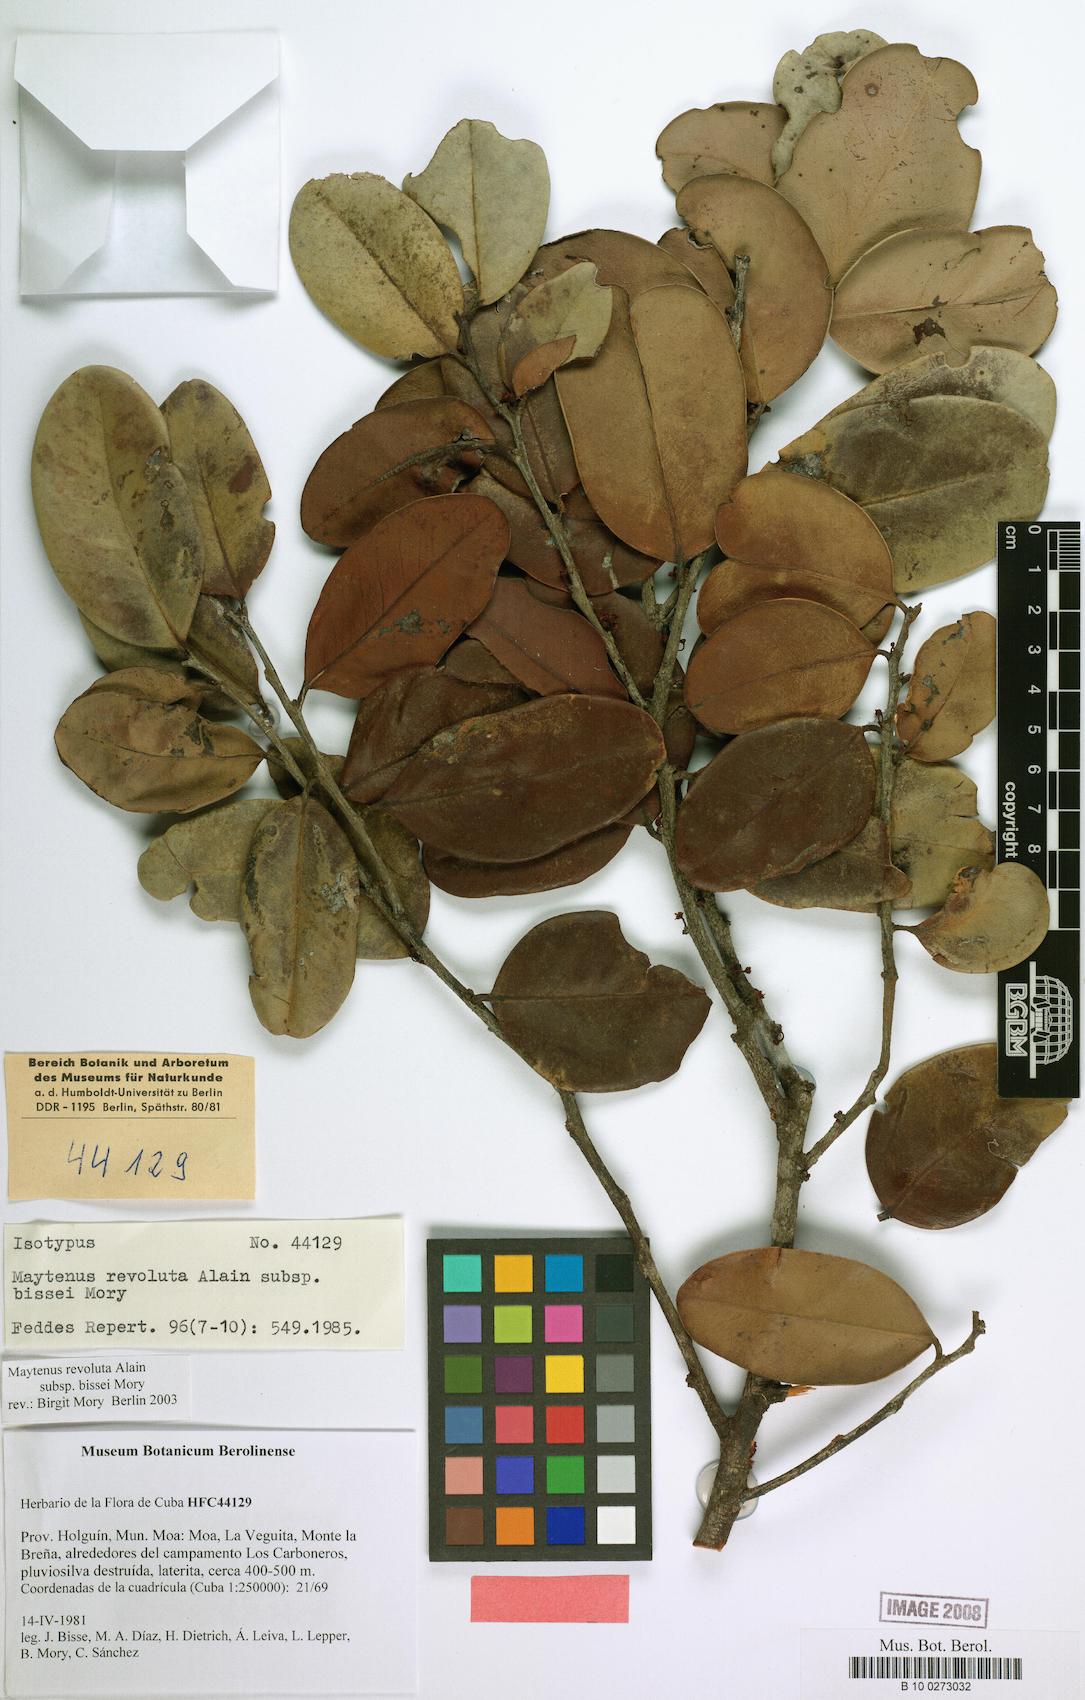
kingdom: Plantae
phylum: Tracheophyta
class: Magnoliopsida
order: Celastrales
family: Celastraceae
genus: Monteverdia
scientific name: Monteverdia revoluta
